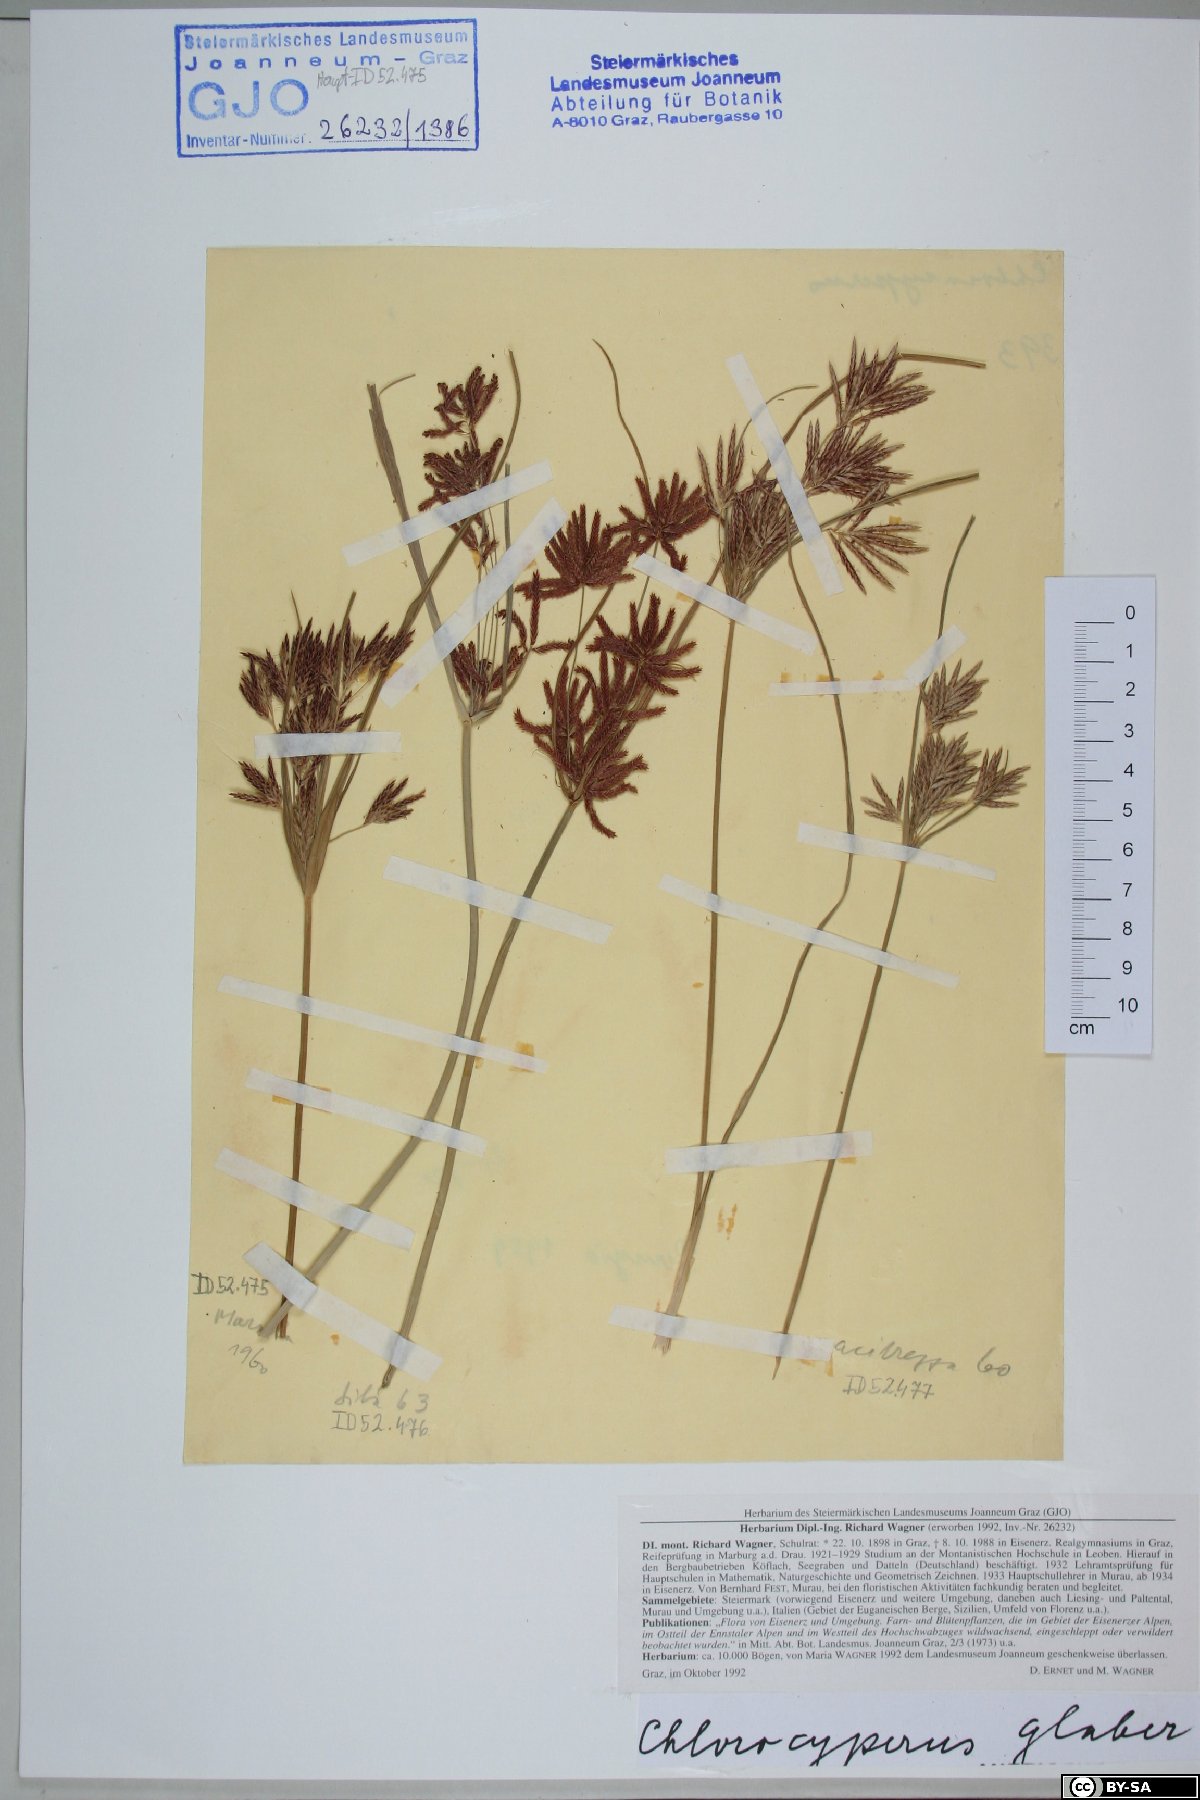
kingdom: Plantae
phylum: Tracheophyta
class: Liliopsida
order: Poales
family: Cyperaceae
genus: Cyperus
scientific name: Cyperus glaber
